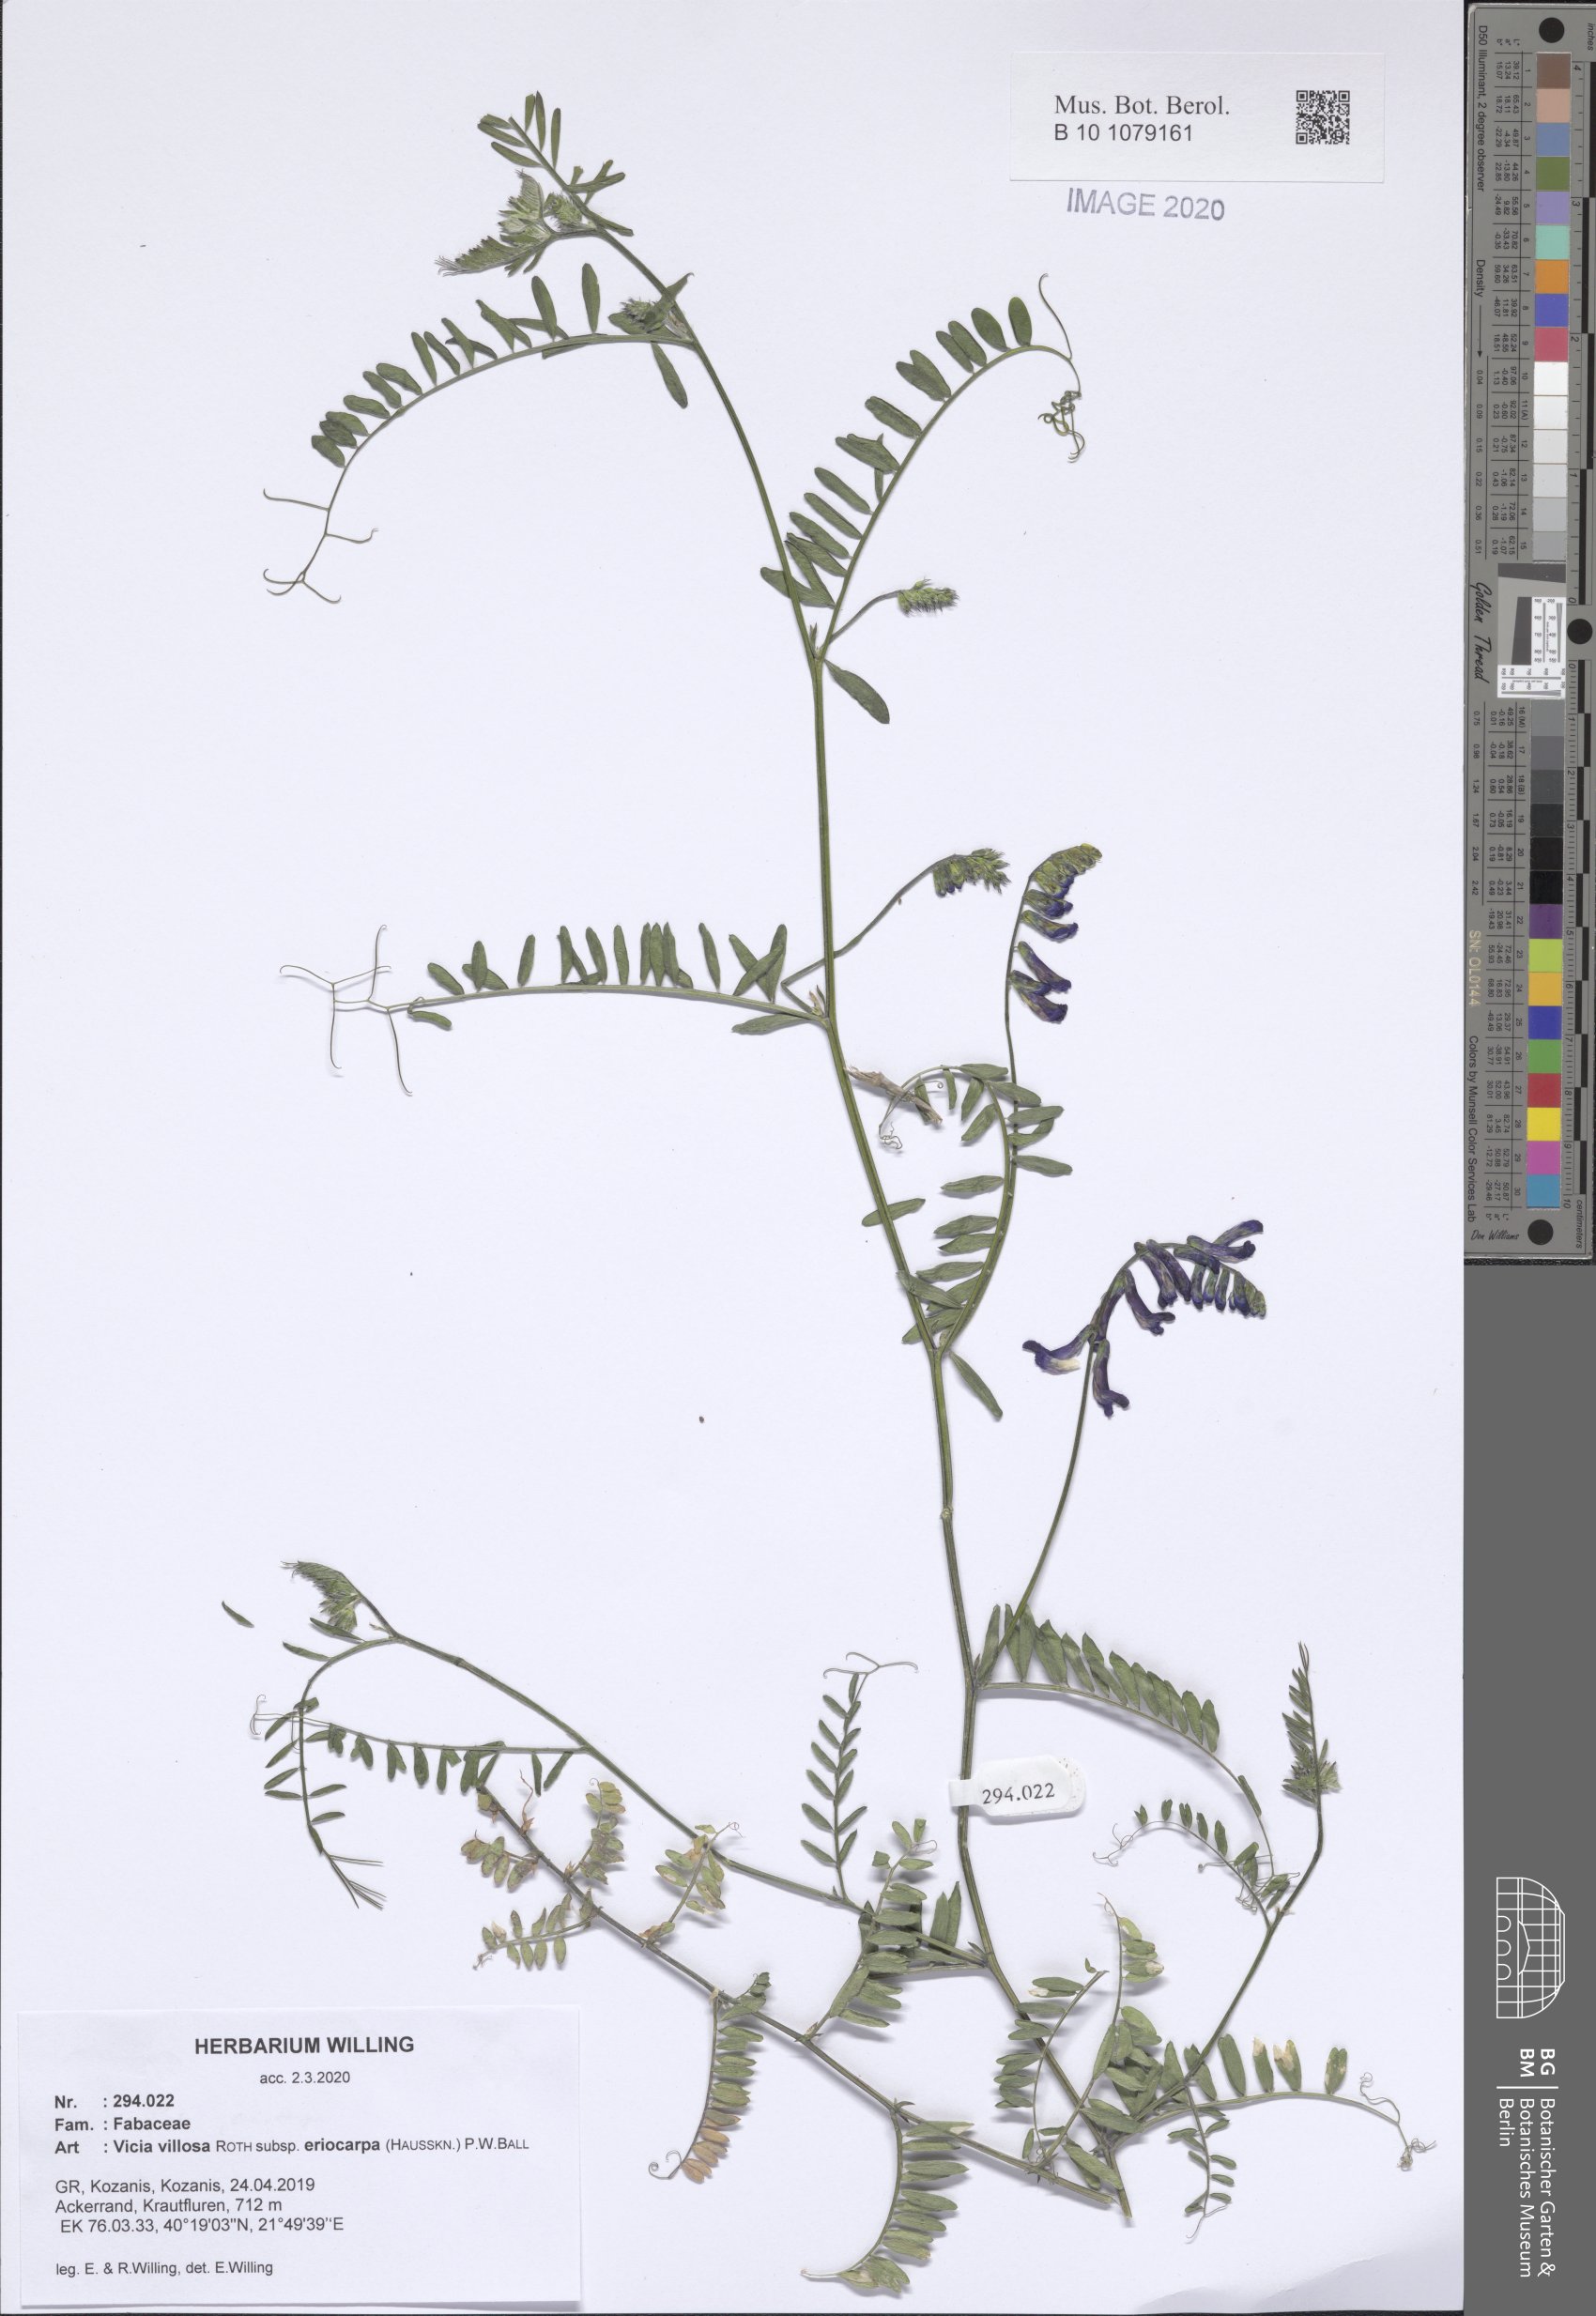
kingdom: Plantae
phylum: Tracheophyta
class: Magnoliopsida
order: Fabales
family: Fabaceae
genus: Vicia
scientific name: Vicia eriocarpa
